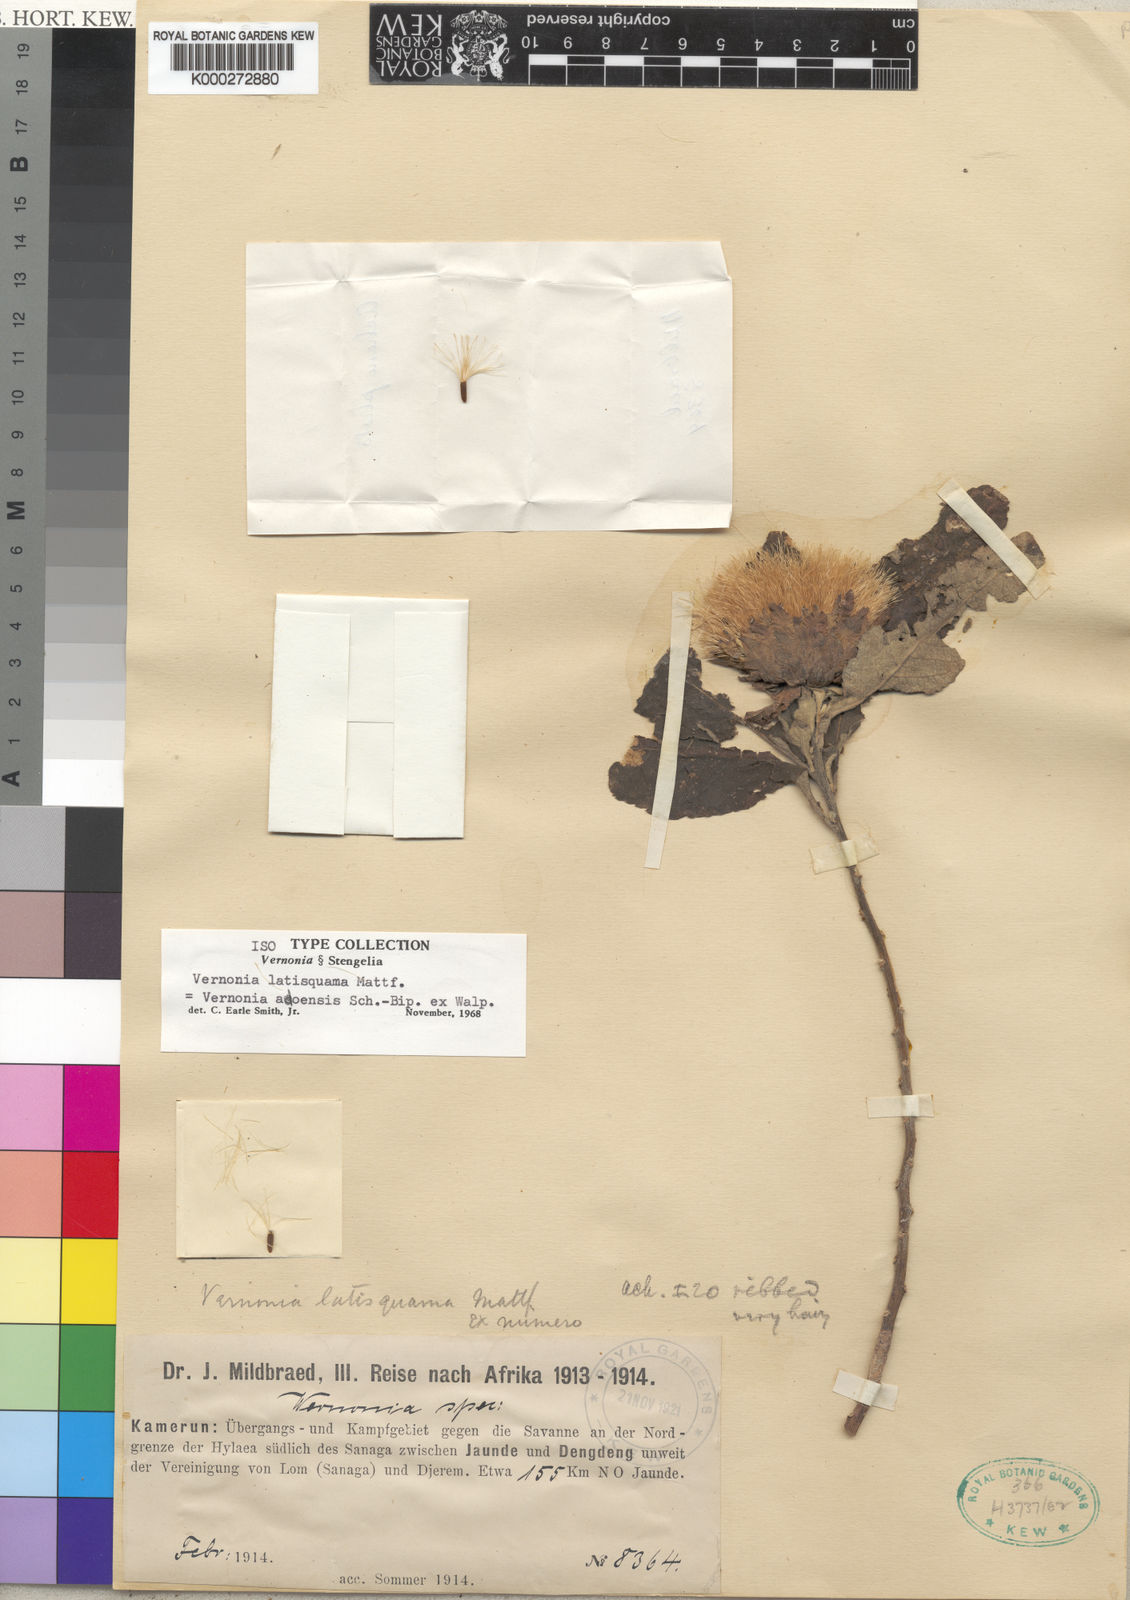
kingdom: Plantae
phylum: Tracheophyta
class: Magnoliopsida
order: Asterales
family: Asteraceae
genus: Baccharoides
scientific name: Baccharoides adoensis
